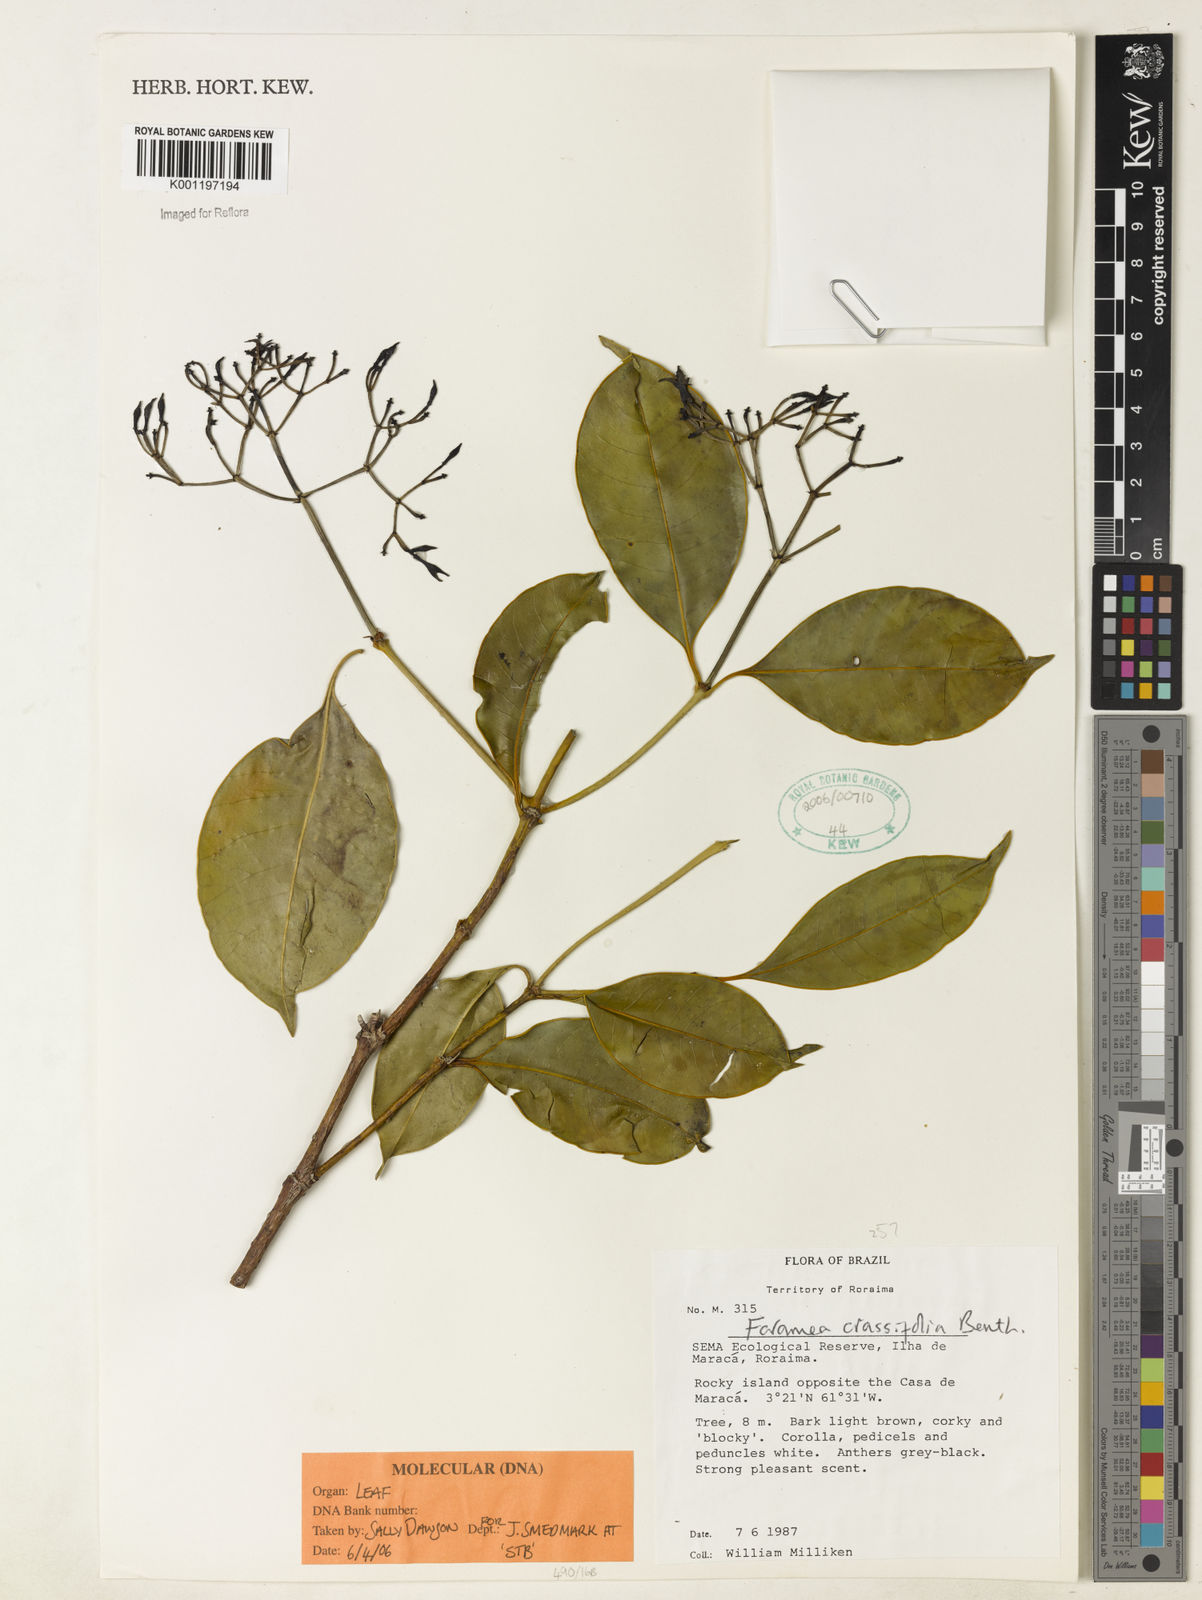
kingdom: Plantae
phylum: Tracheophyta
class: Magnoliopsida
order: Gentianales
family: Rubiaceae
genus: Faramea
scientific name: Faramea crassifolia
